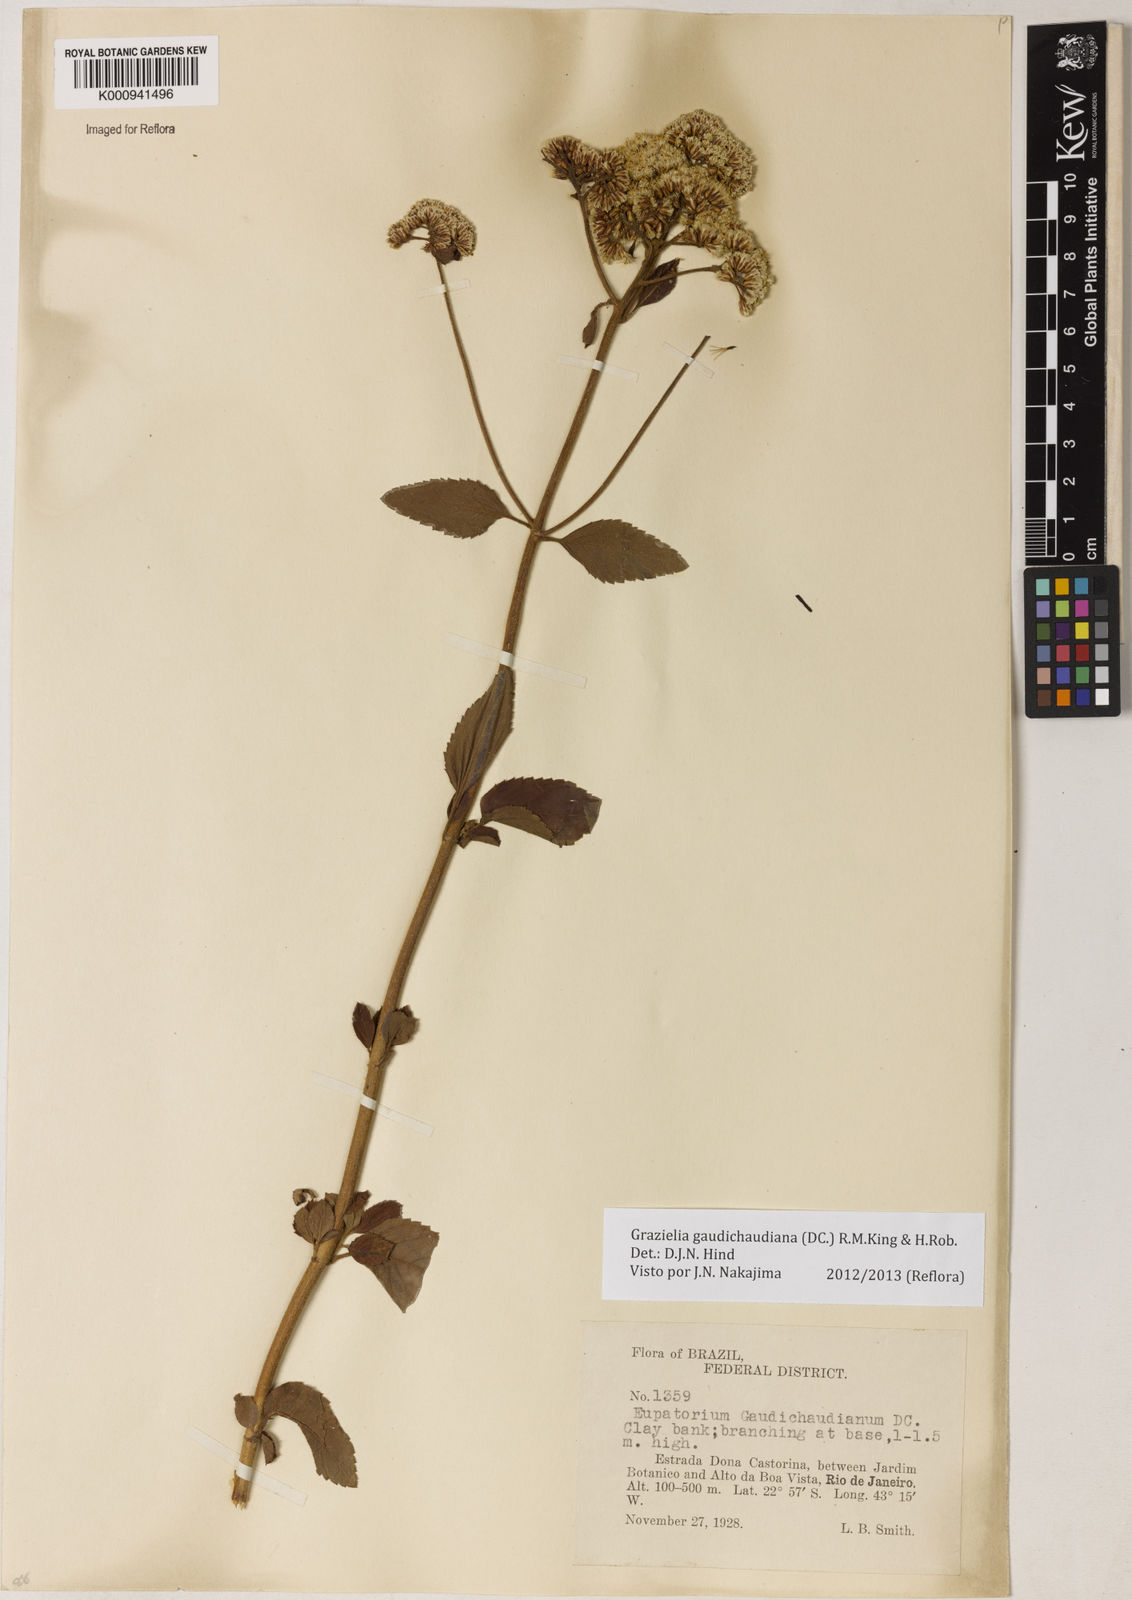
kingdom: Plantae
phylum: Tracheophyta
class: Magnoliopsida
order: Asterales
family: Asteraceae
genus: Grazielia
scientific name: Grazielia
